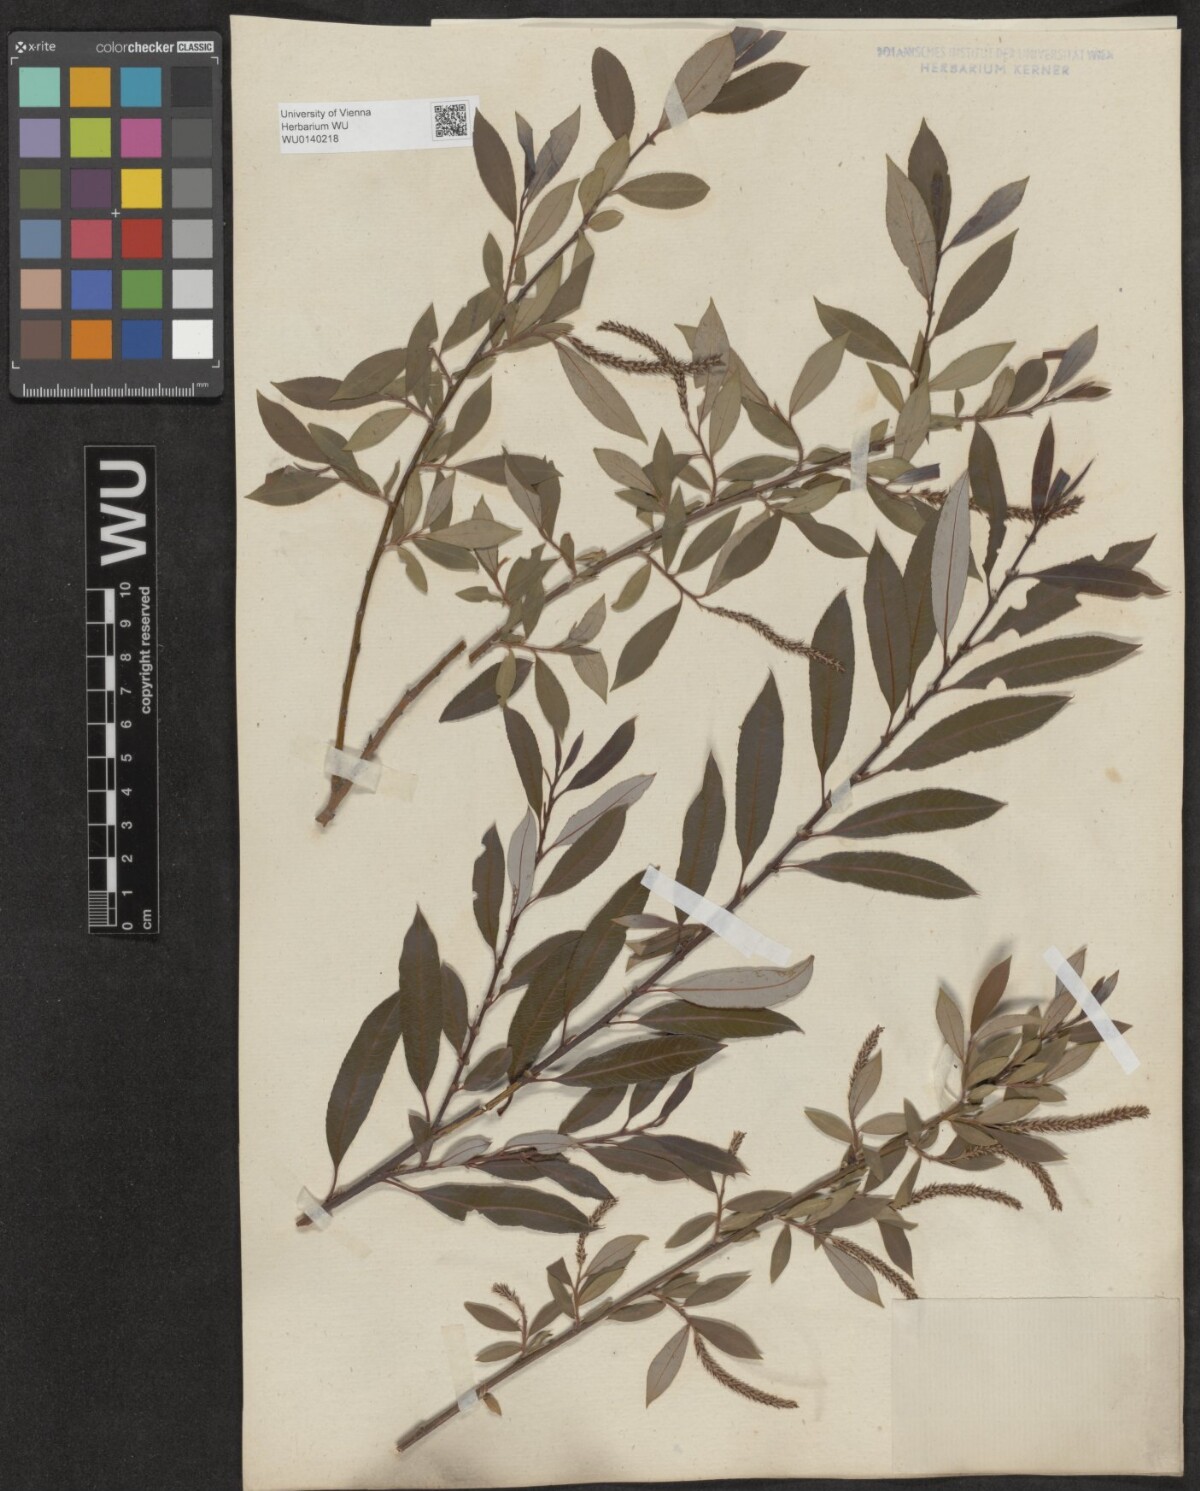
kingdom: Plantae
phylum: Tracheophyta
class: Magnoliopsida
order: Malpighiales
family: Salicaceae
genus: Salix
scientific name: Salix triandra
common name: Almond willow
